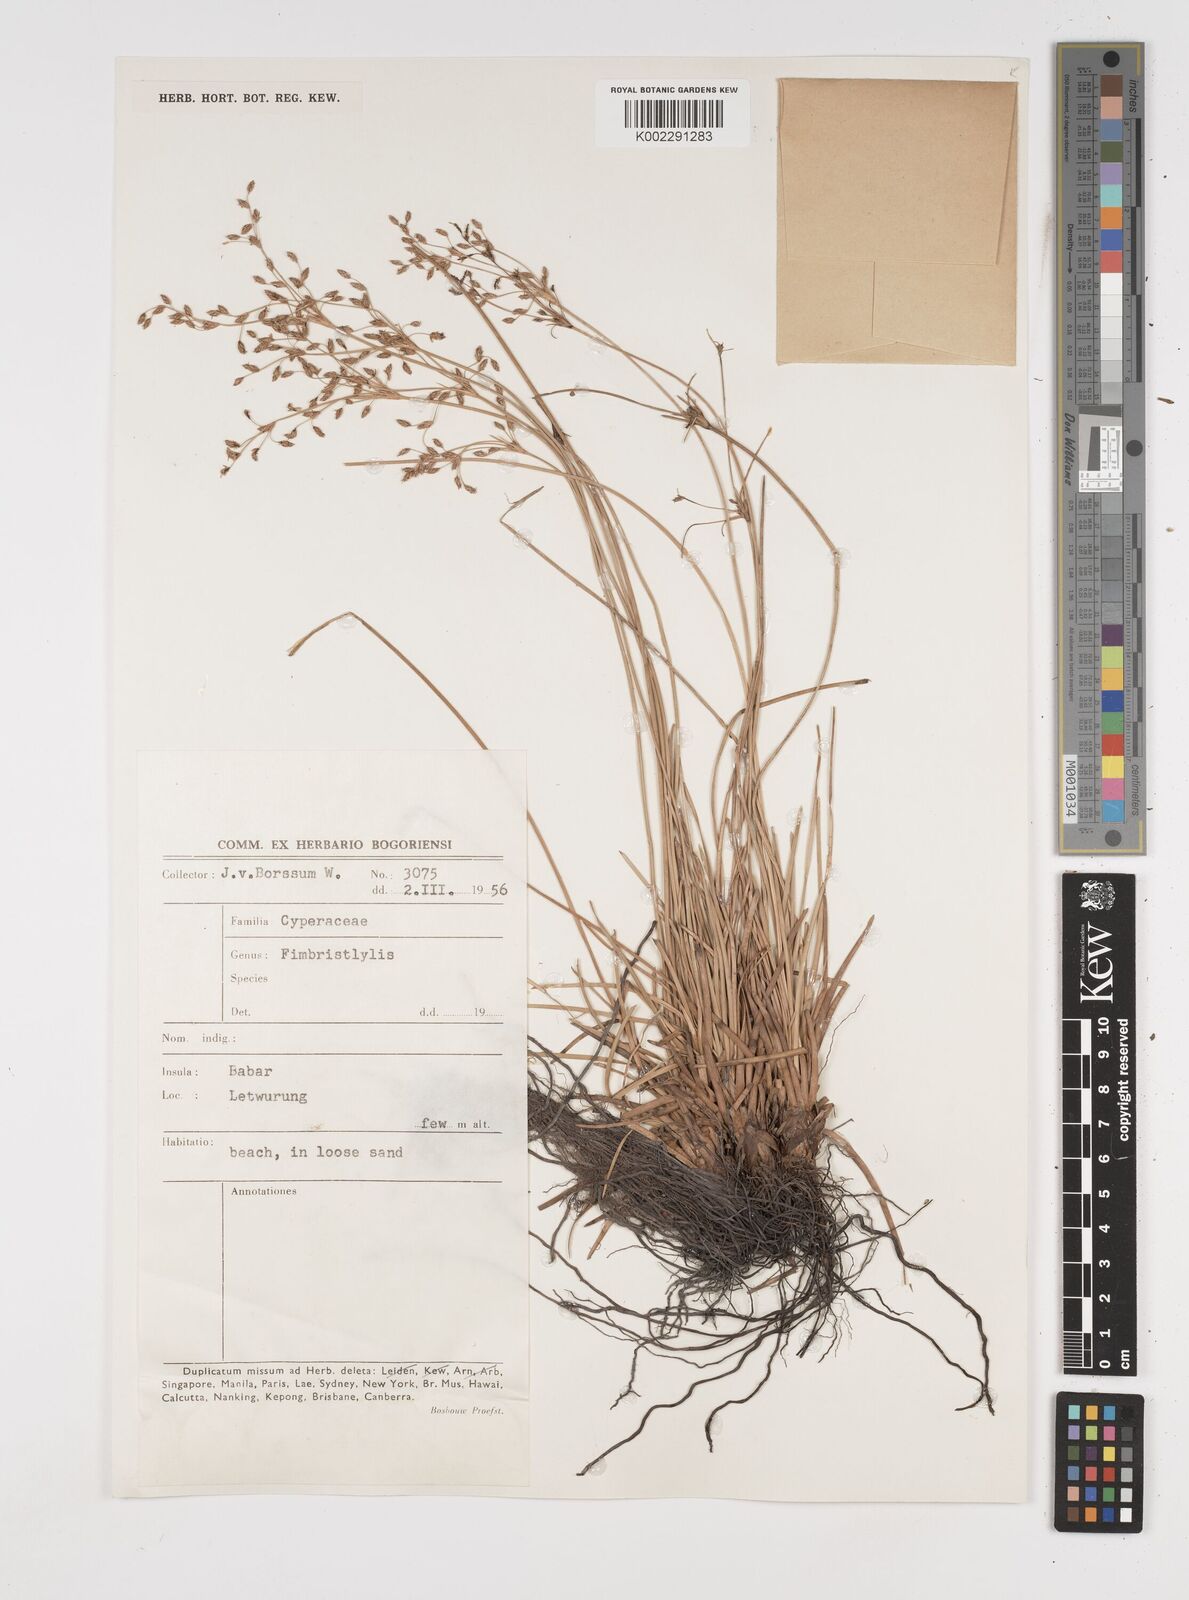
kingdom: Plantae
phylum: Tracheophyta
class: Liliopsida
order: Poales
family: Cyperaceae
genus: Fimbristylis
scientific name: Fimbristylis
